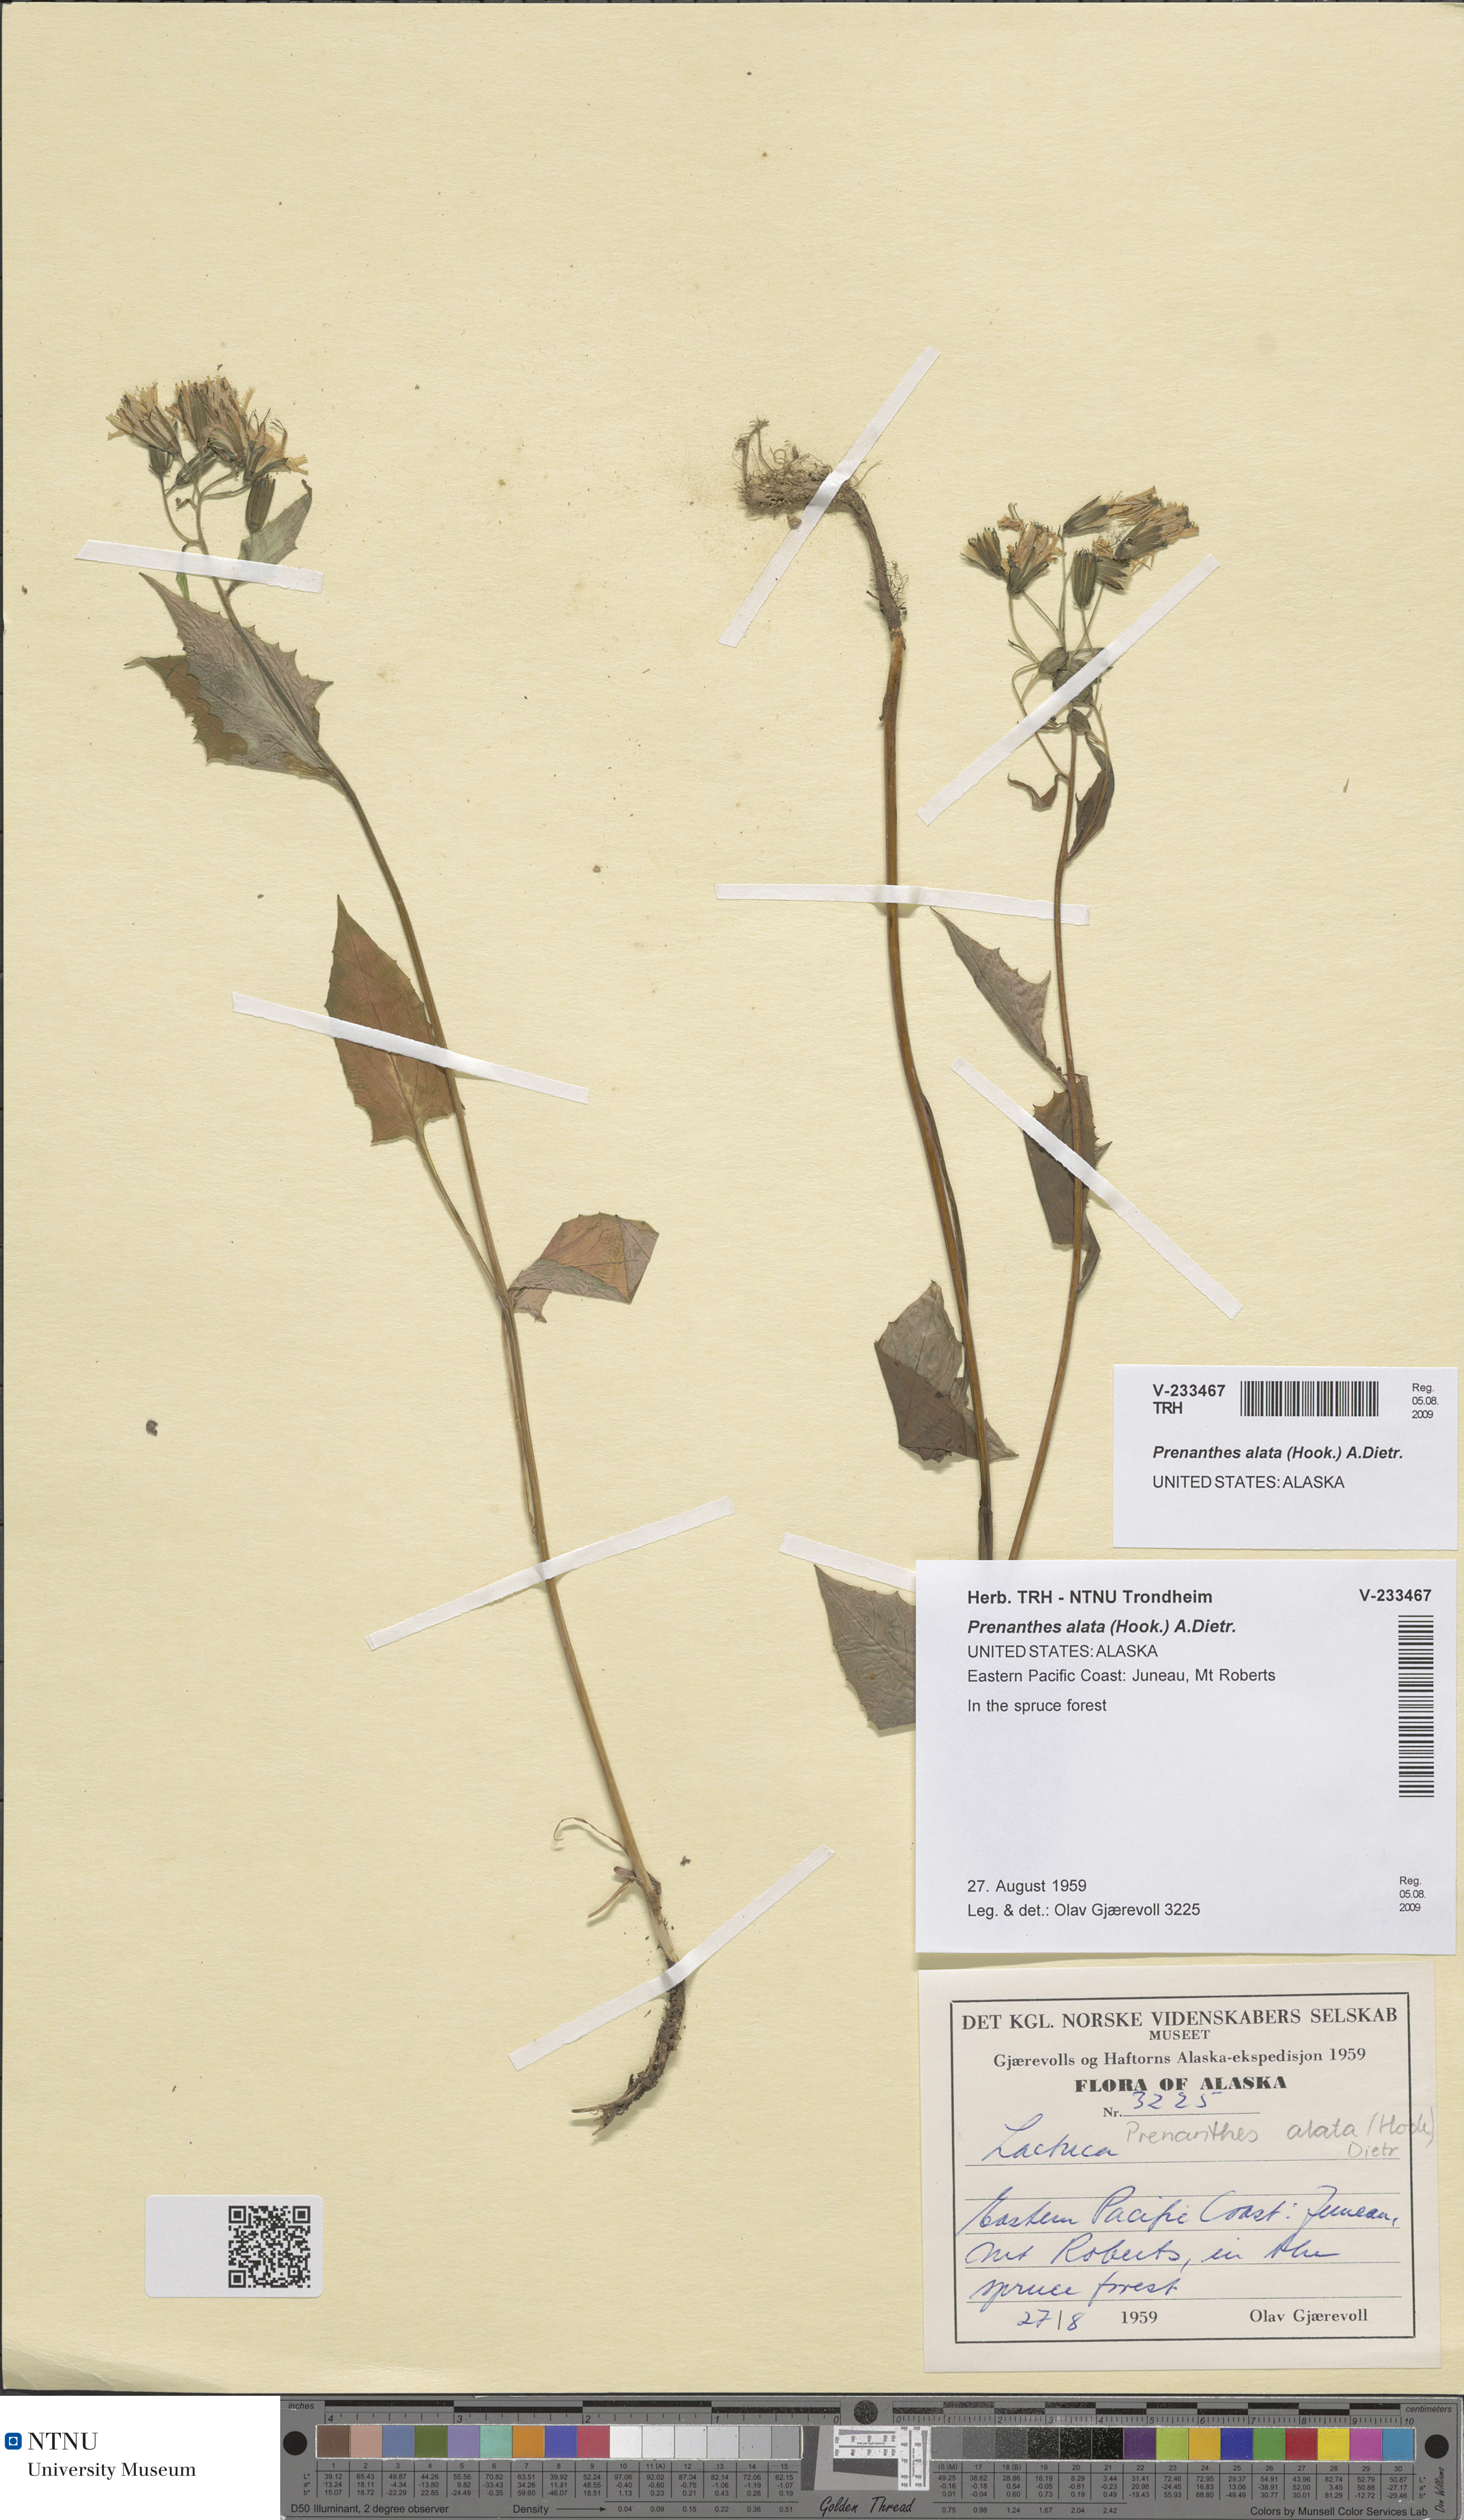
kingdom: Plantae
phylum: Tracheophyta
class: Magnoliopsida
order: Asterales
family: Asteraceae
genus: Prenanthes
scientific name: Prenanthes alata
